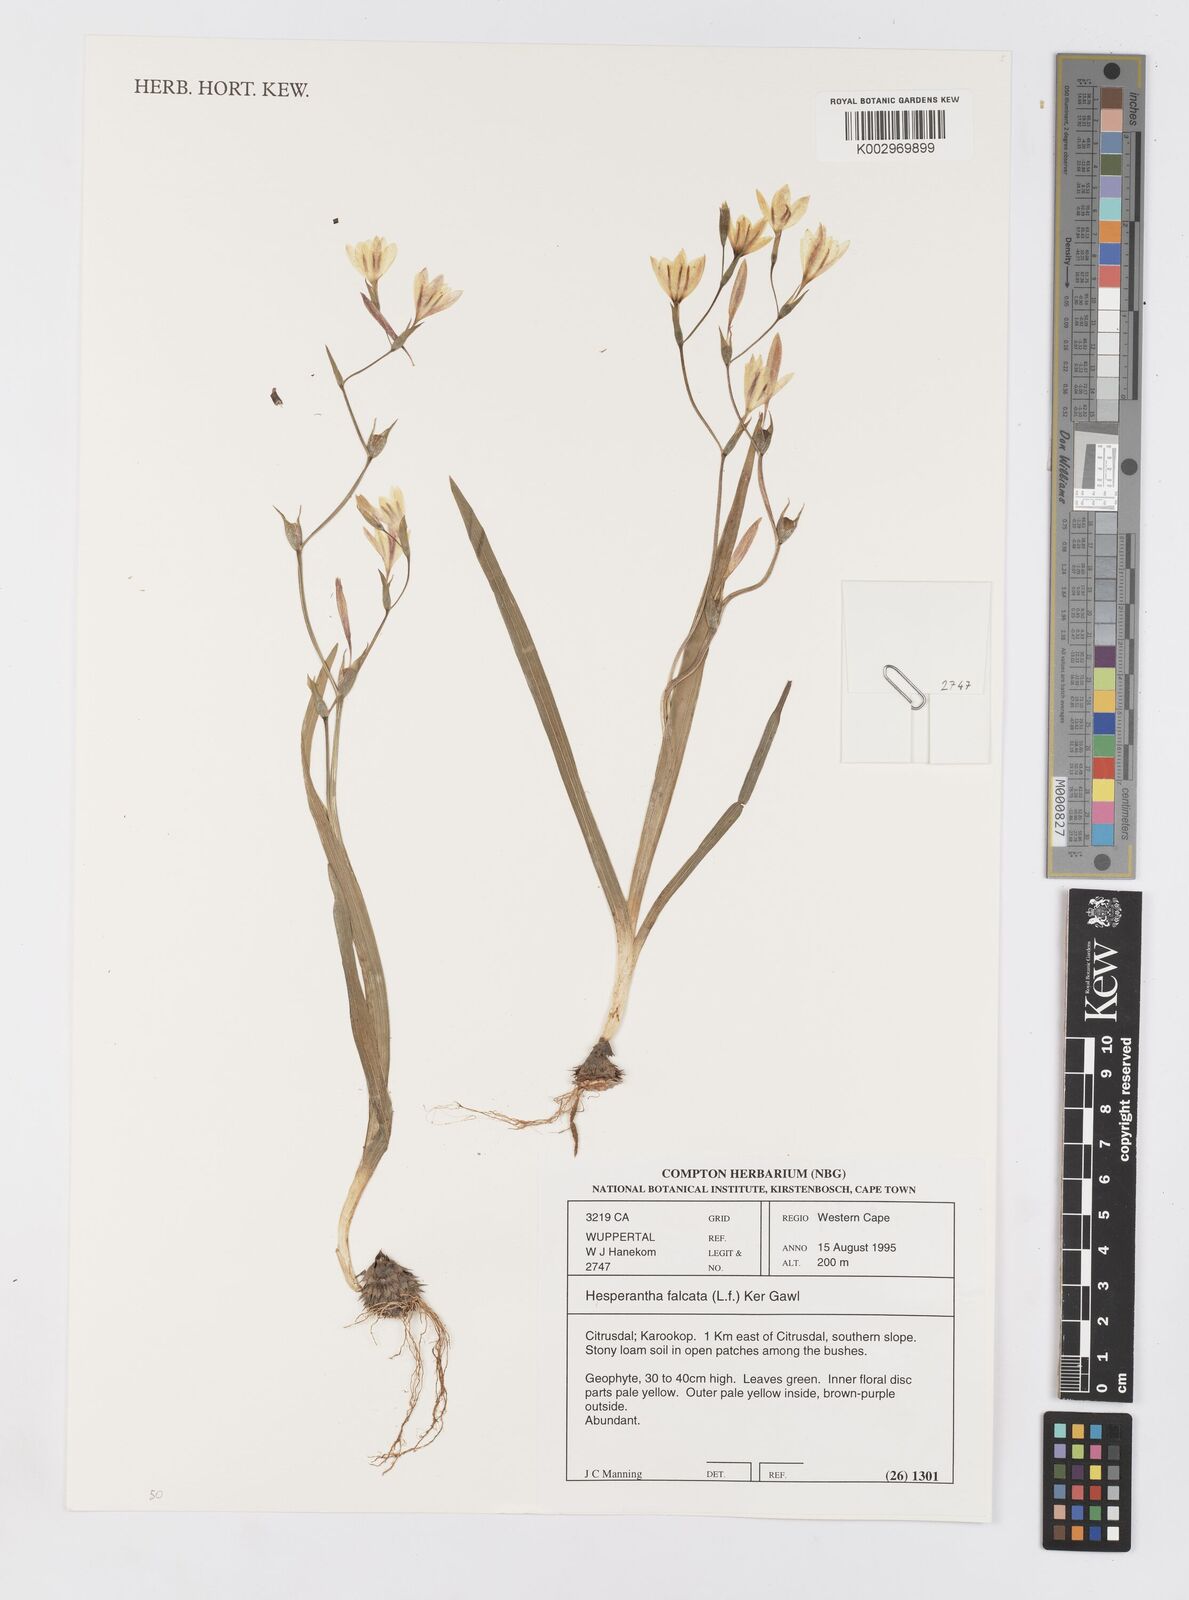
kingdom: Plantae
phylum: Tracheophyta
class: Liliopsida
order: Asparagales
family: Iridaceae
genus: Hesperantha
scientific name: Hesperantha falcata
